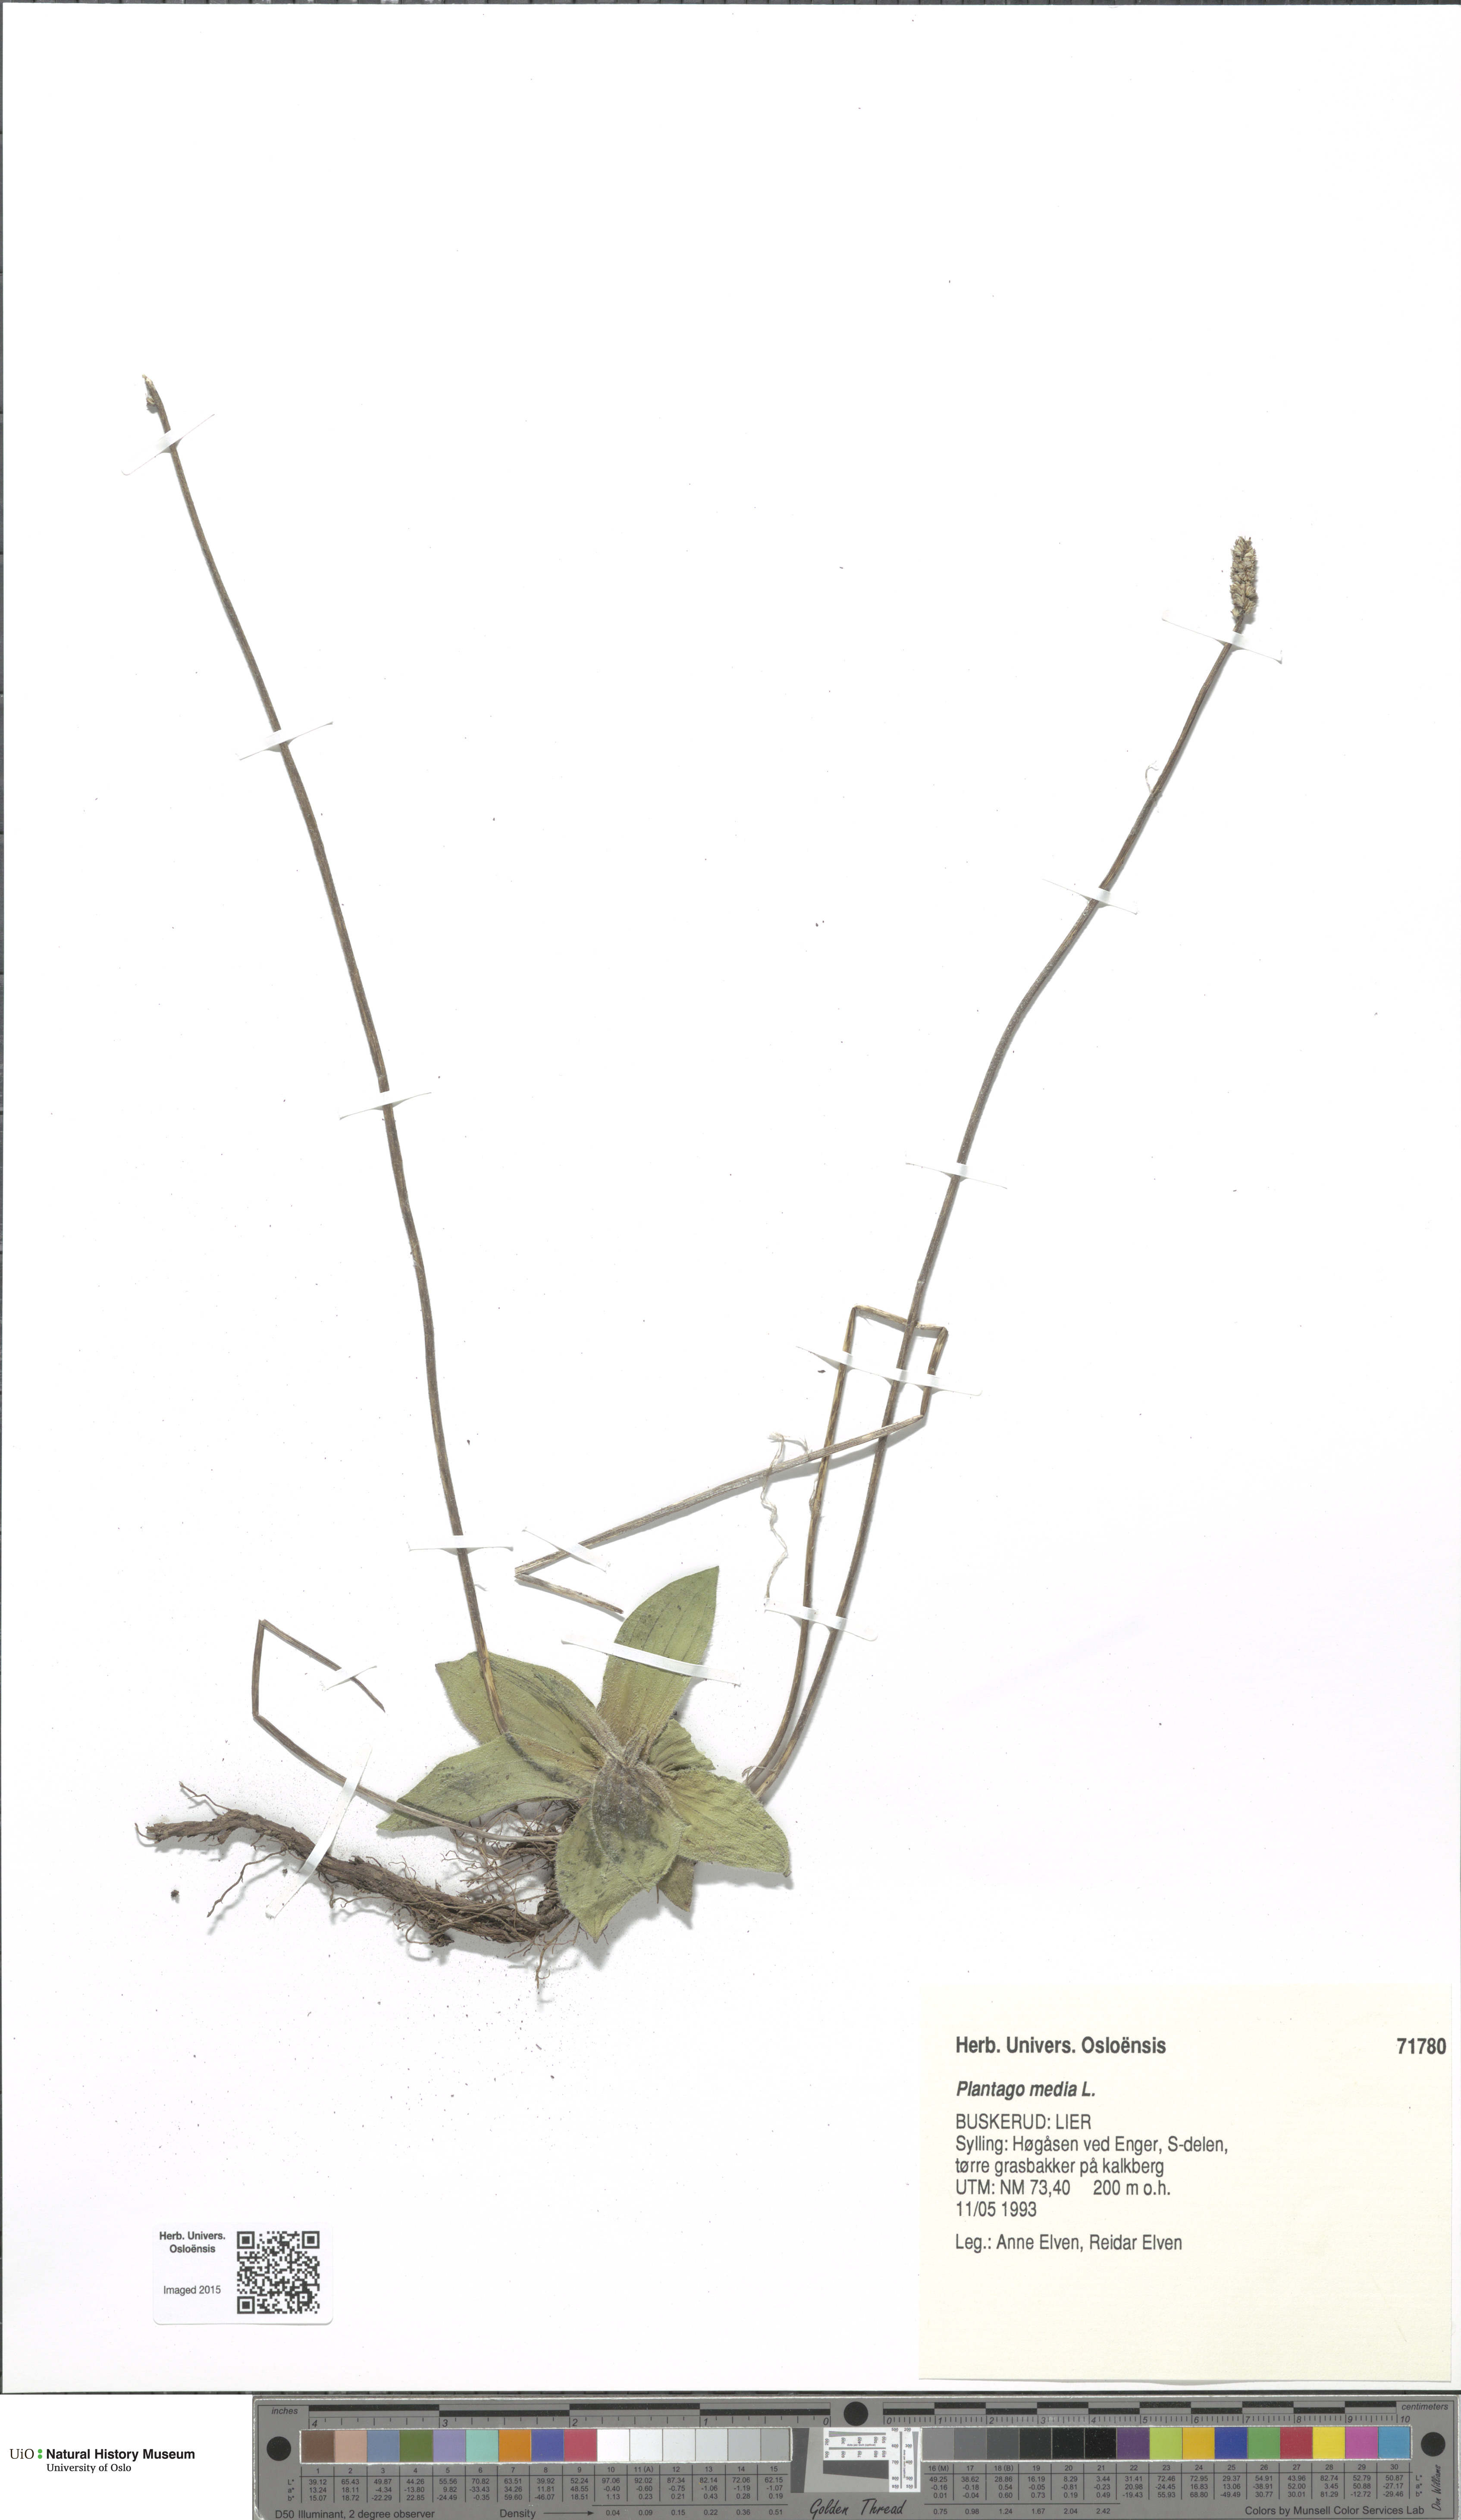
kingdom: Plantae
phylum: Tracheophyta
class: Magnoliopsida
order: Lamiales
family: Plantaginaceae
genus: Plantago
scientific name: Plantago media
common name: Hoary plantain
